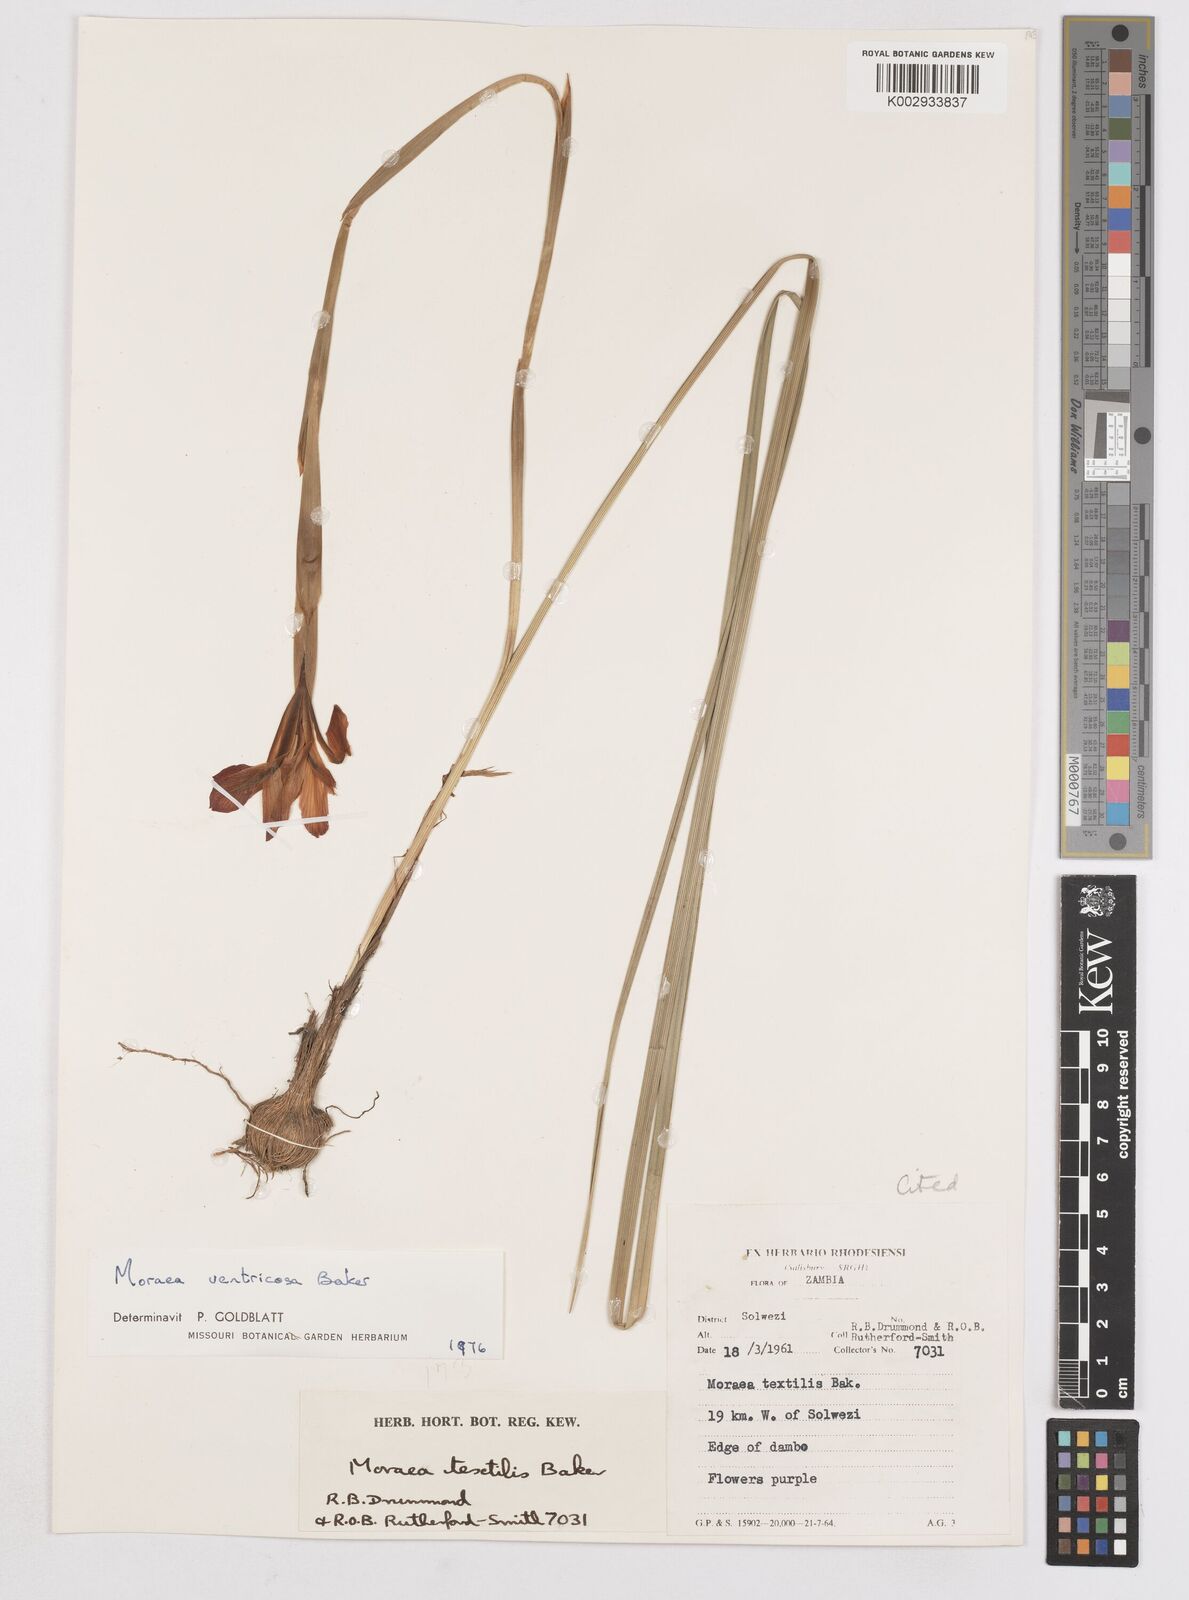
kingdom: Plantae
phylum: Tracheophyta
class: Liliopsida
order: Asparagales
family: Iridaceae
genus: Moraea
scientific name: Moraea ventricosa
